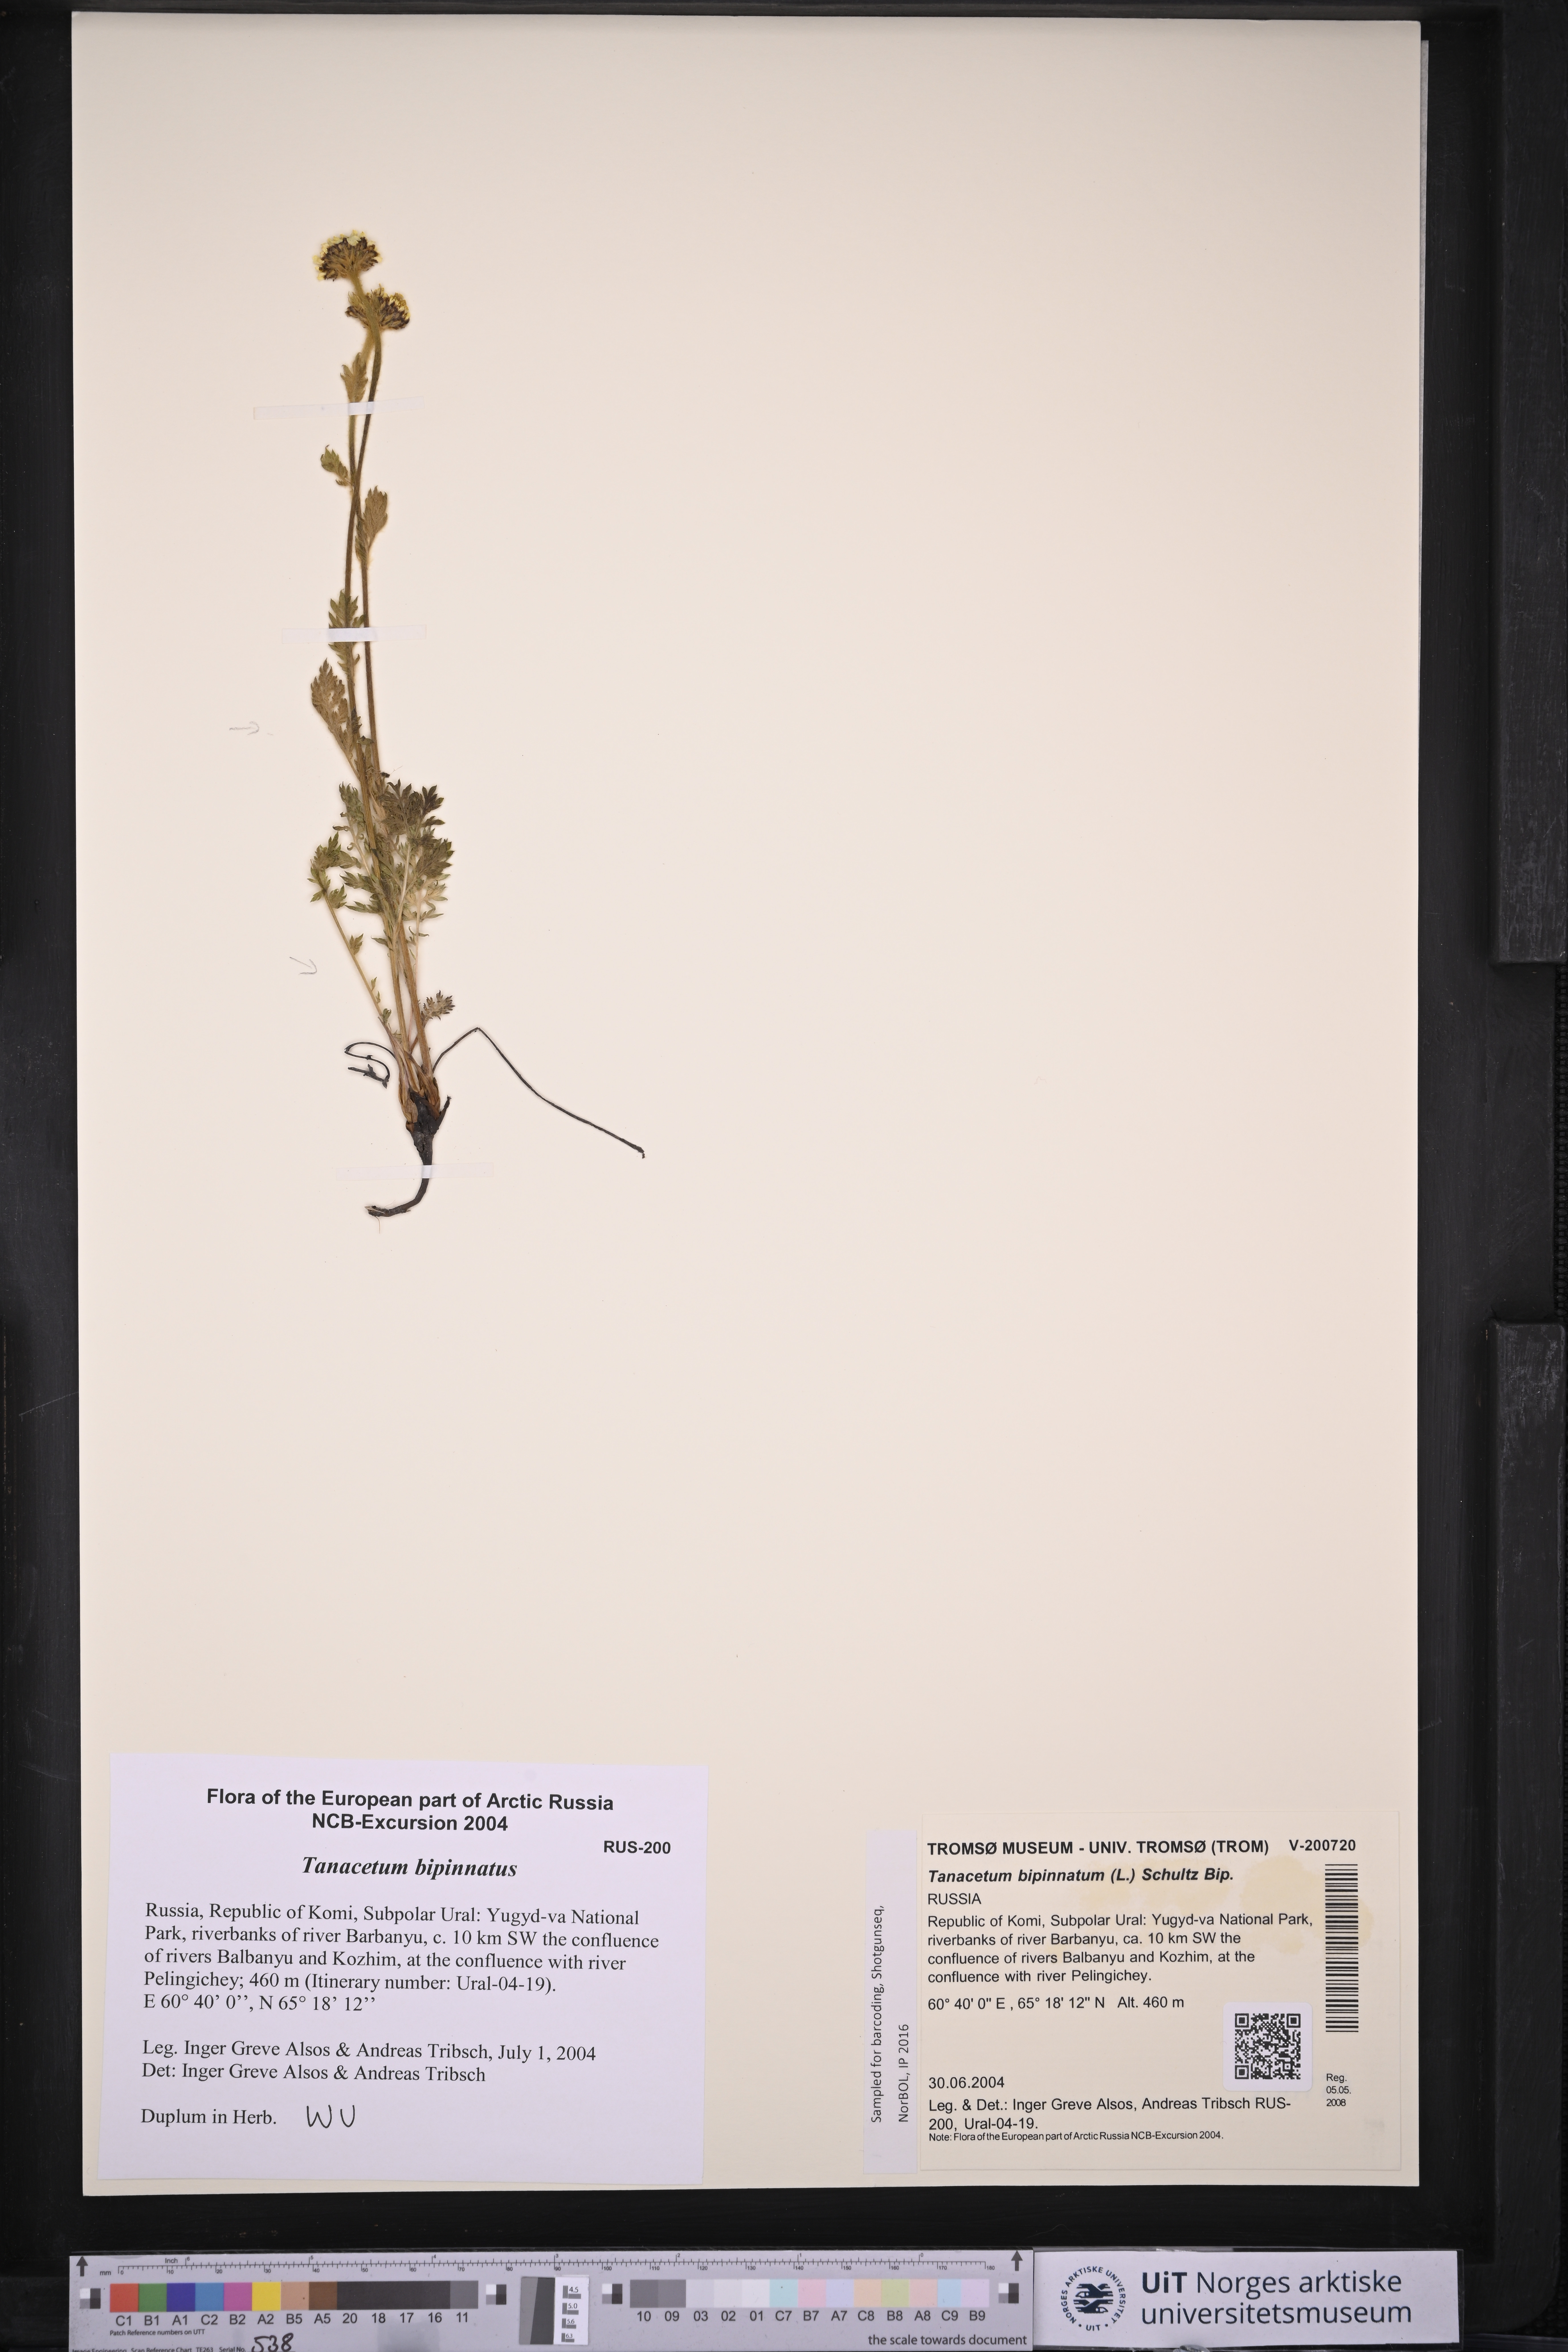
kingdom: Plantae
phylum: Tracheophyta
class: Magnoliopsida
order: Asterales
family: Asteraceae
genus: Tanacetum
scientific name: Tanacetum bipinnatum
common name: Dwarf tansy
